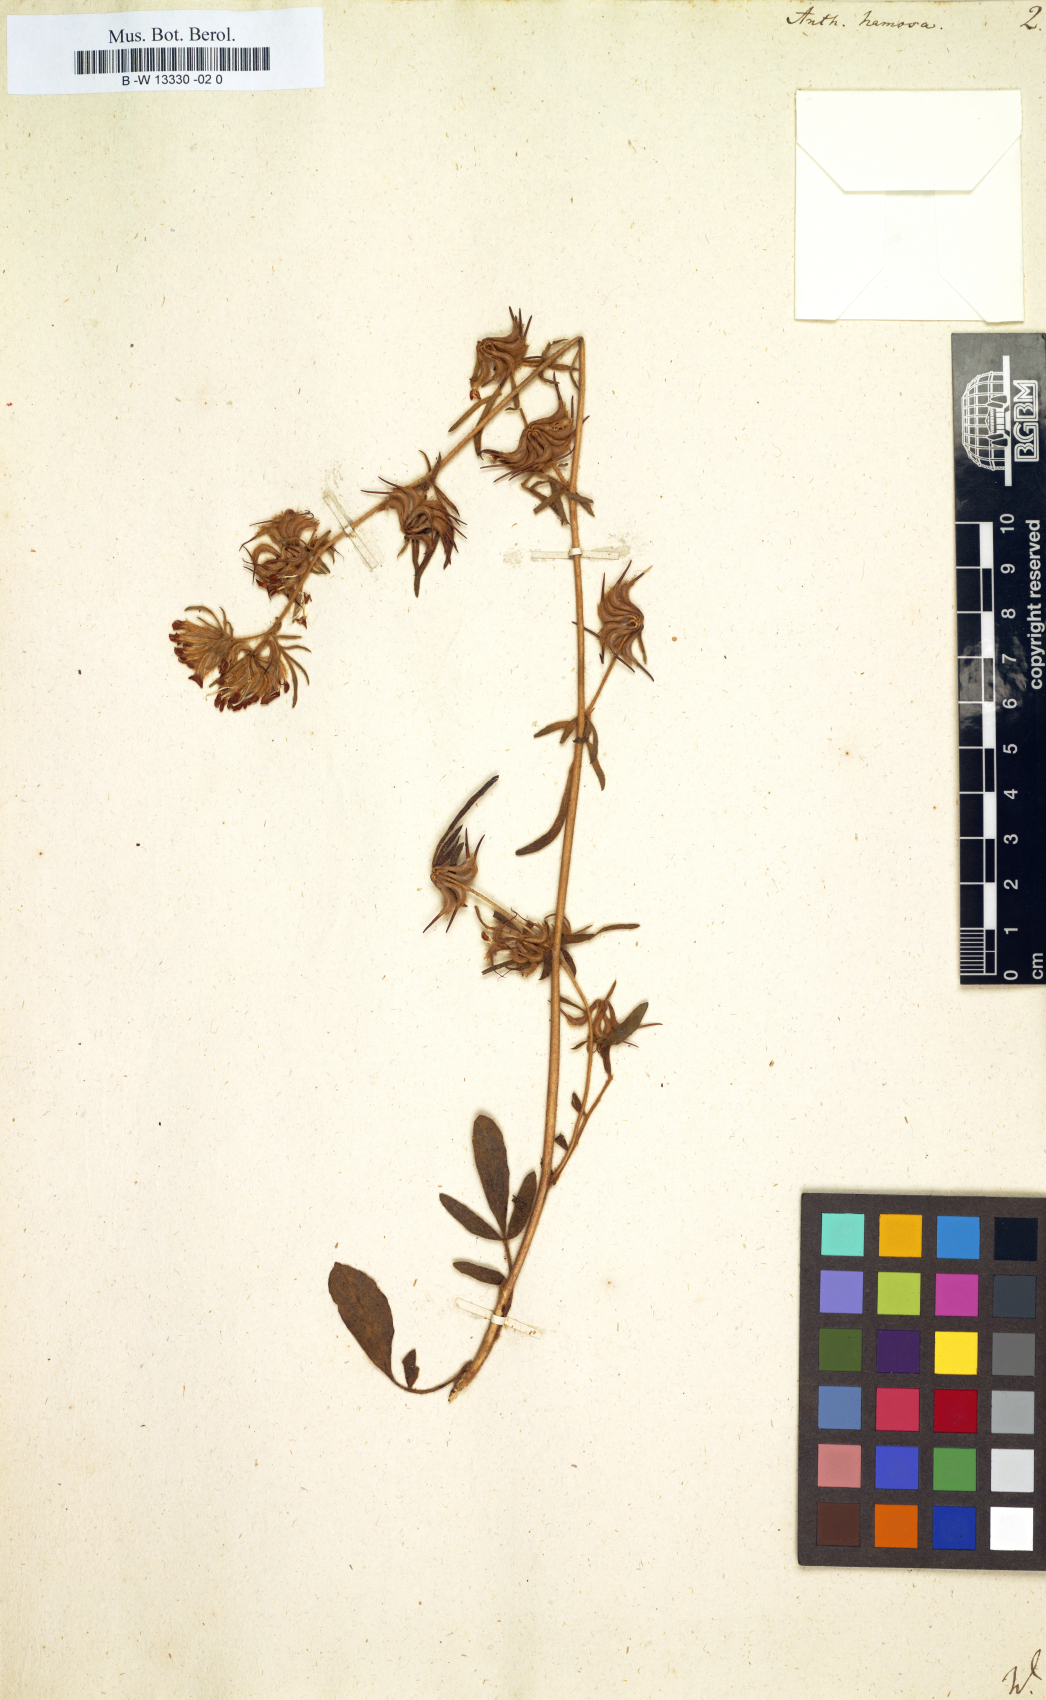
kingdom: Plantae
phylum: Tracheophyta
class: Magnoliopsida
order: Fabales
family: Fabaceae
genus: Anthyllis
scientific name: Anthyllis hamosa
